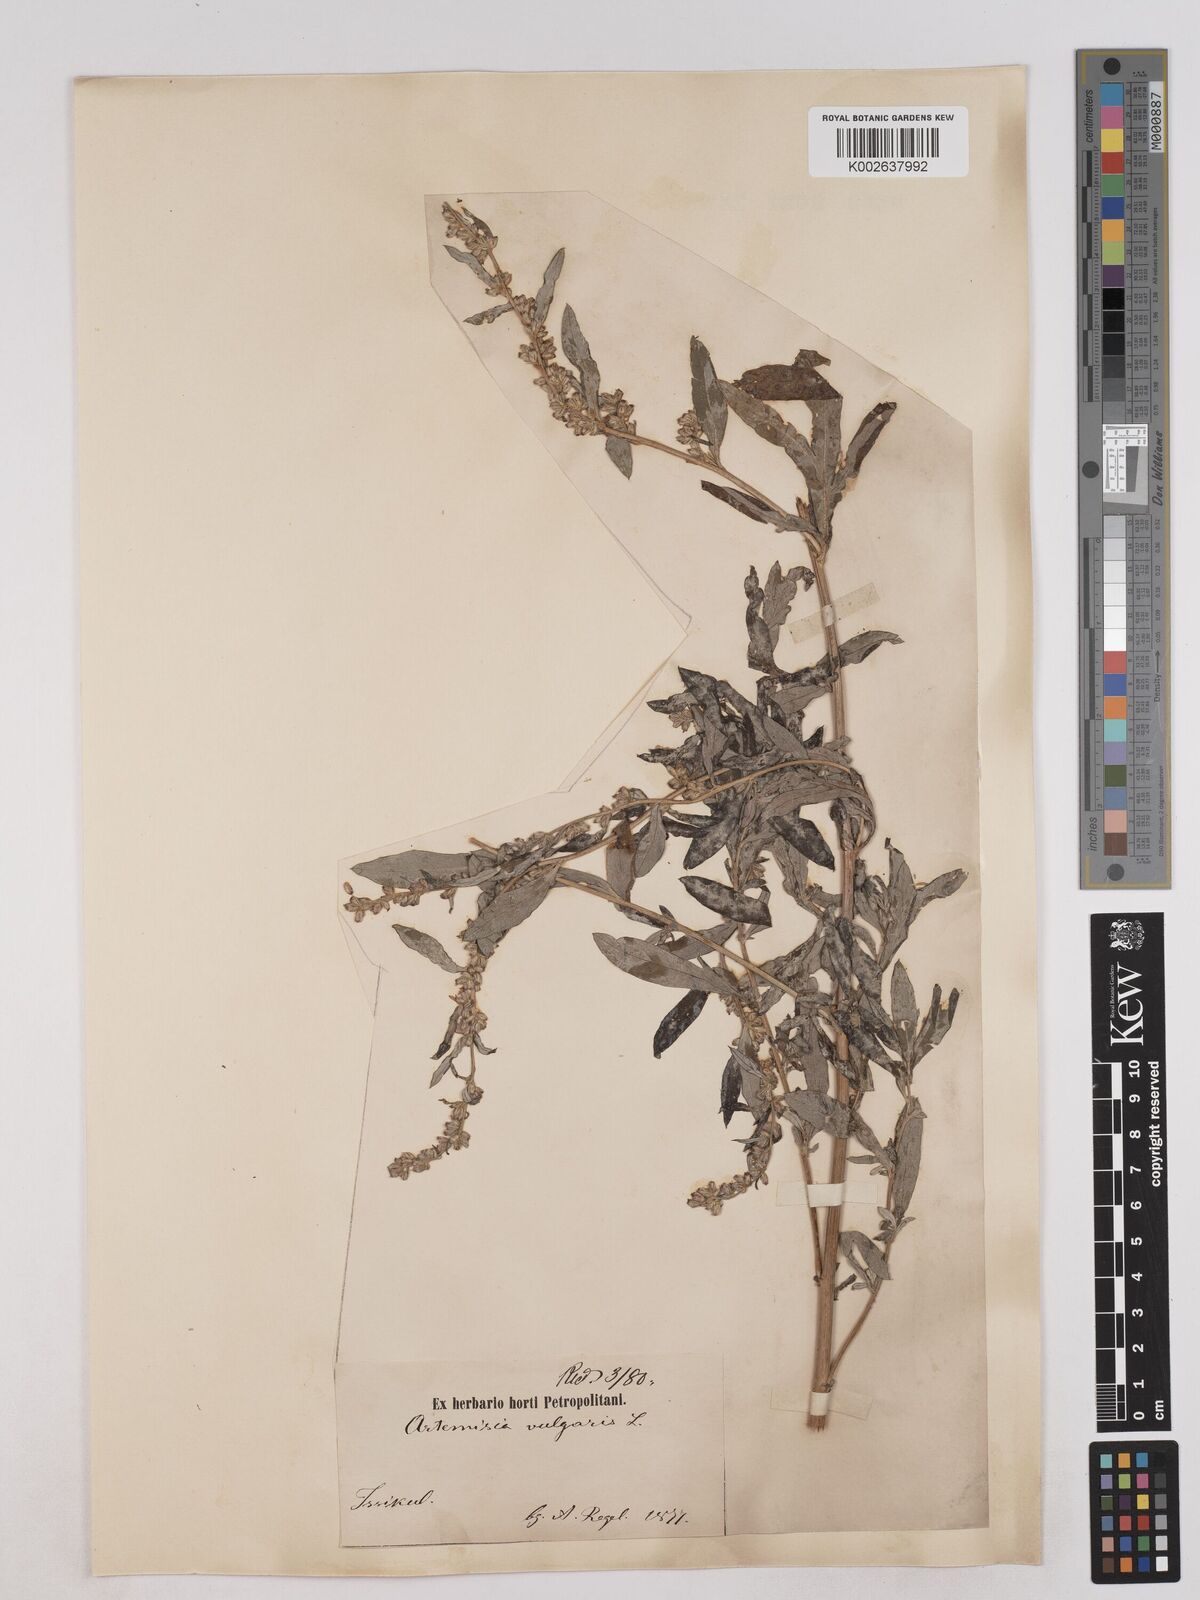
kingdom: Plantae
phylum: Tracheophyta
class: Magnoliopsida
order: Asterales
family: Asteraceae
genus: Artemisia
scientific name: Artemisia igniaria
